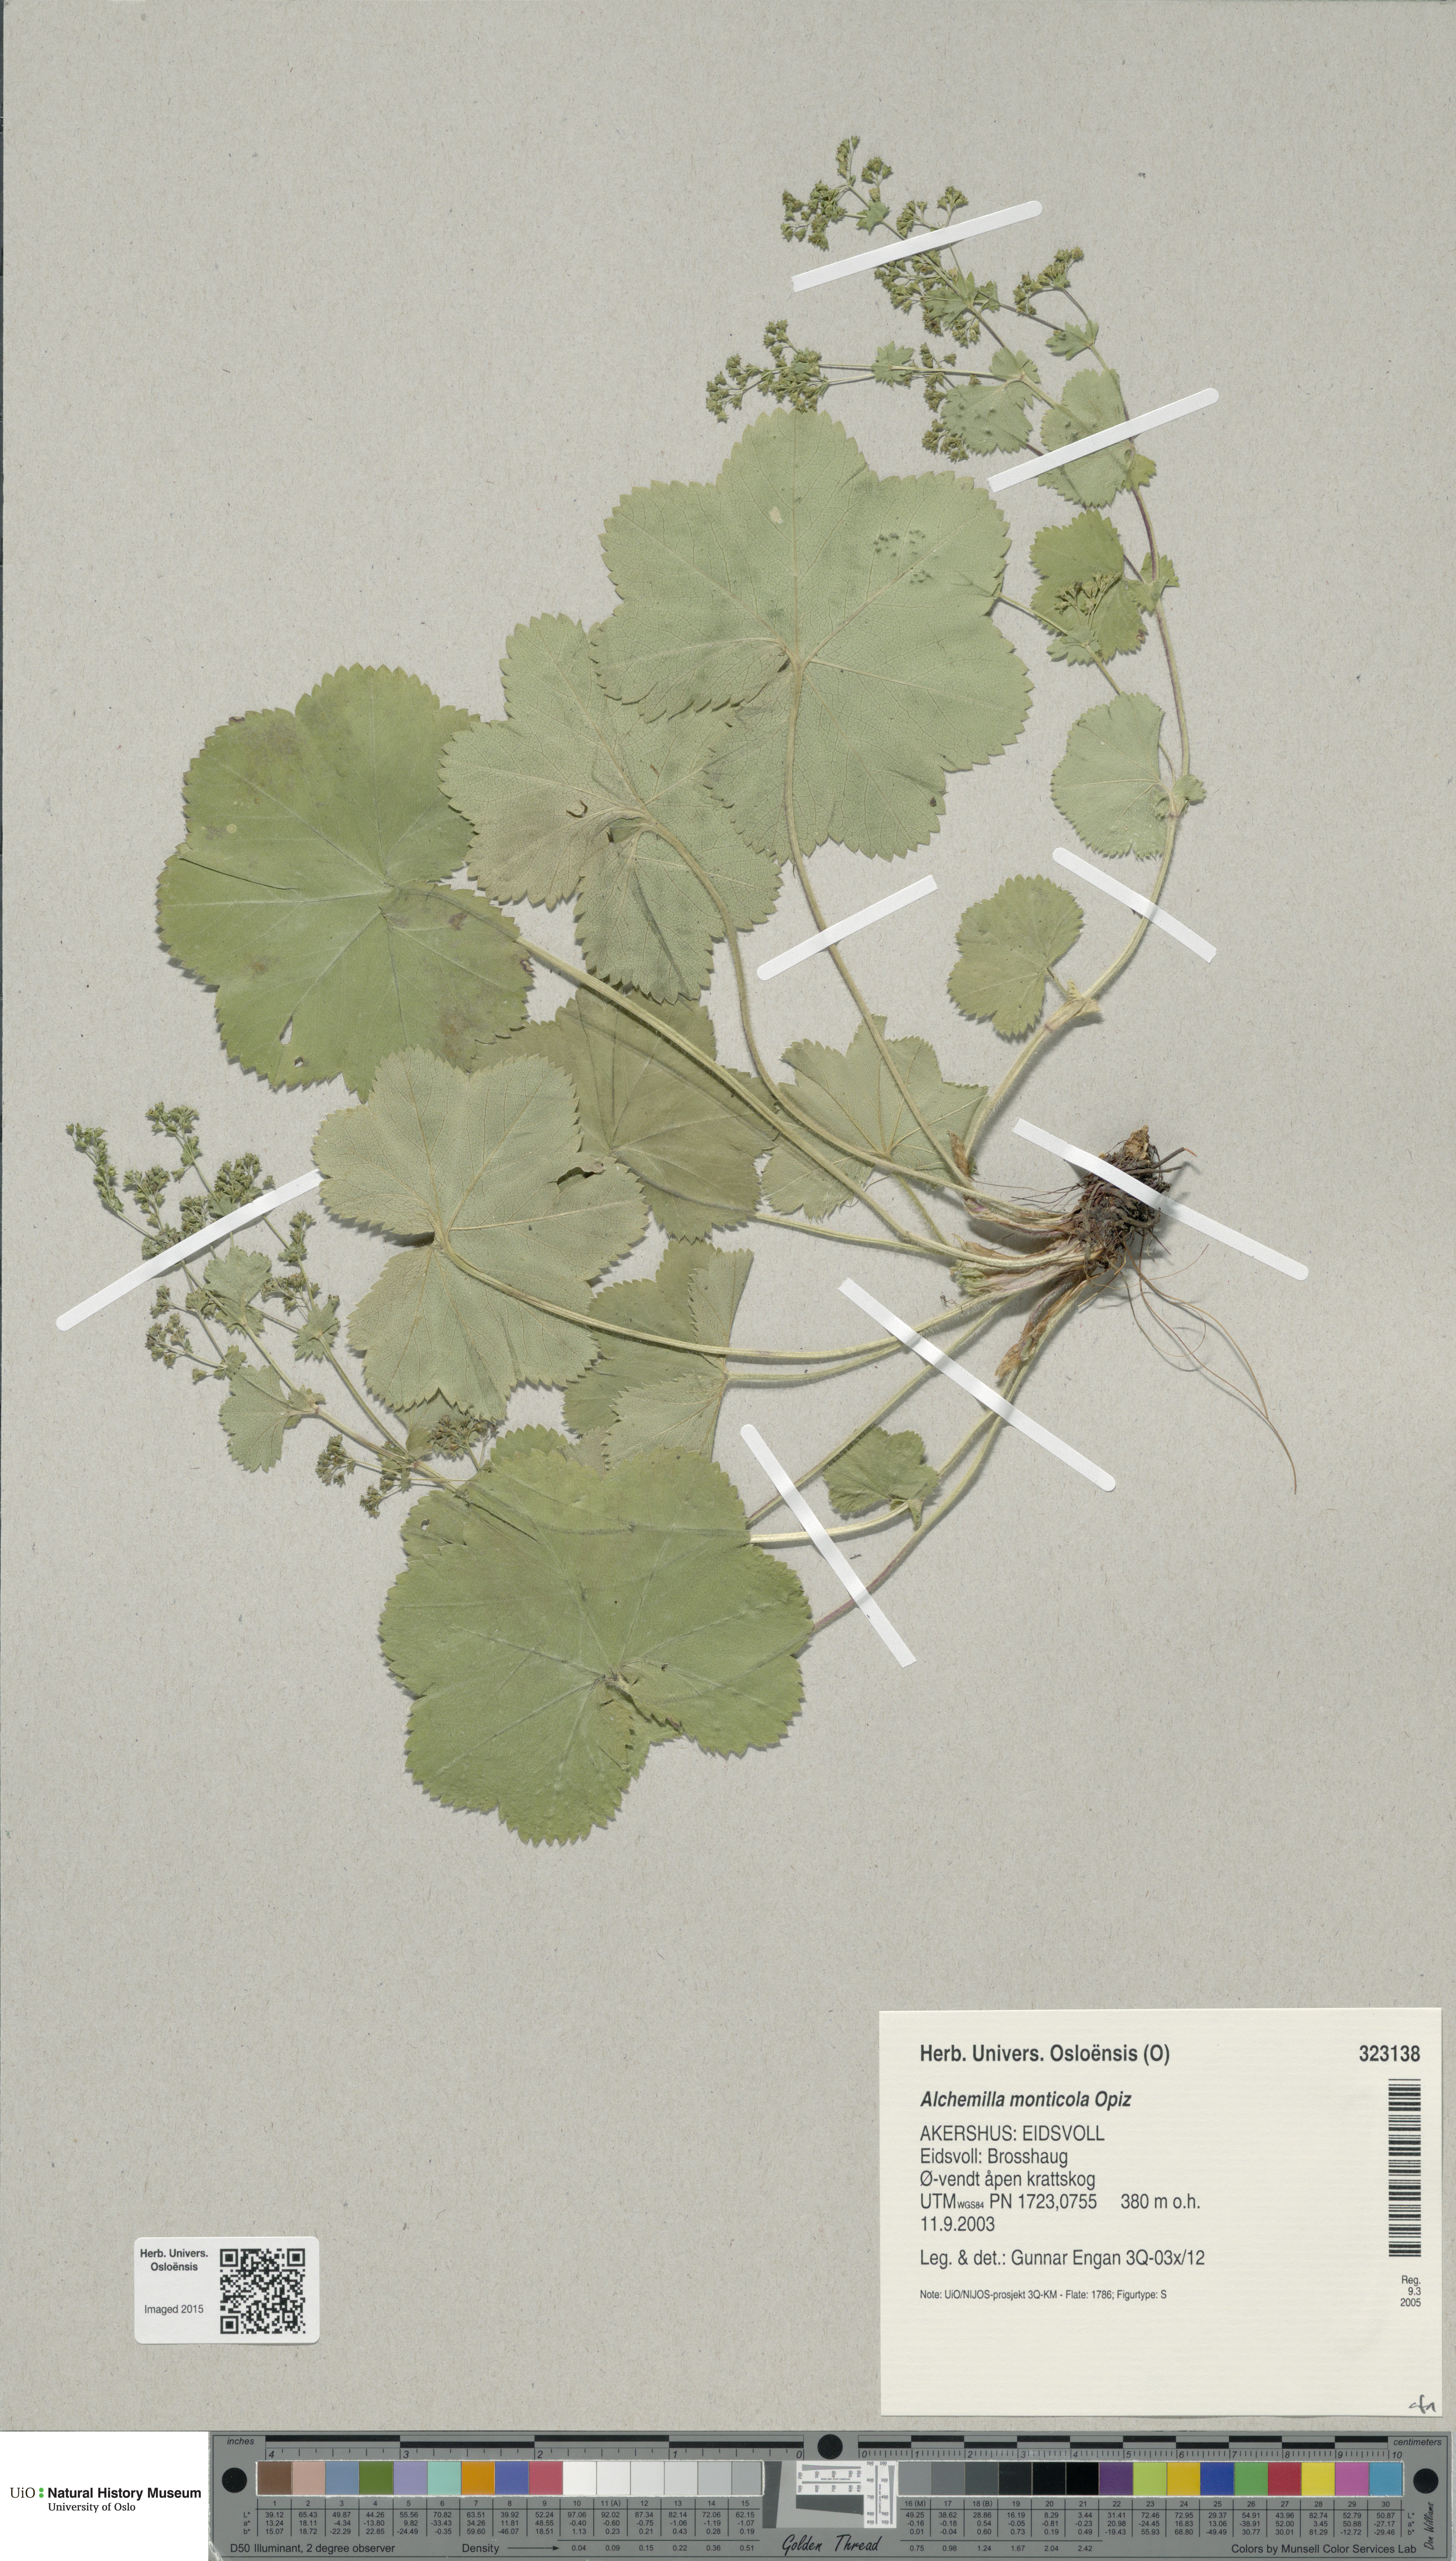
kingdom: Plantae
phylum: Tracheophyta
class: Magnoliopsida
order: Rosales
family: Rosaceae
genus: Alchemilla
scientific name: Alchemilla monticola
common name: Hairy lady's mantle
